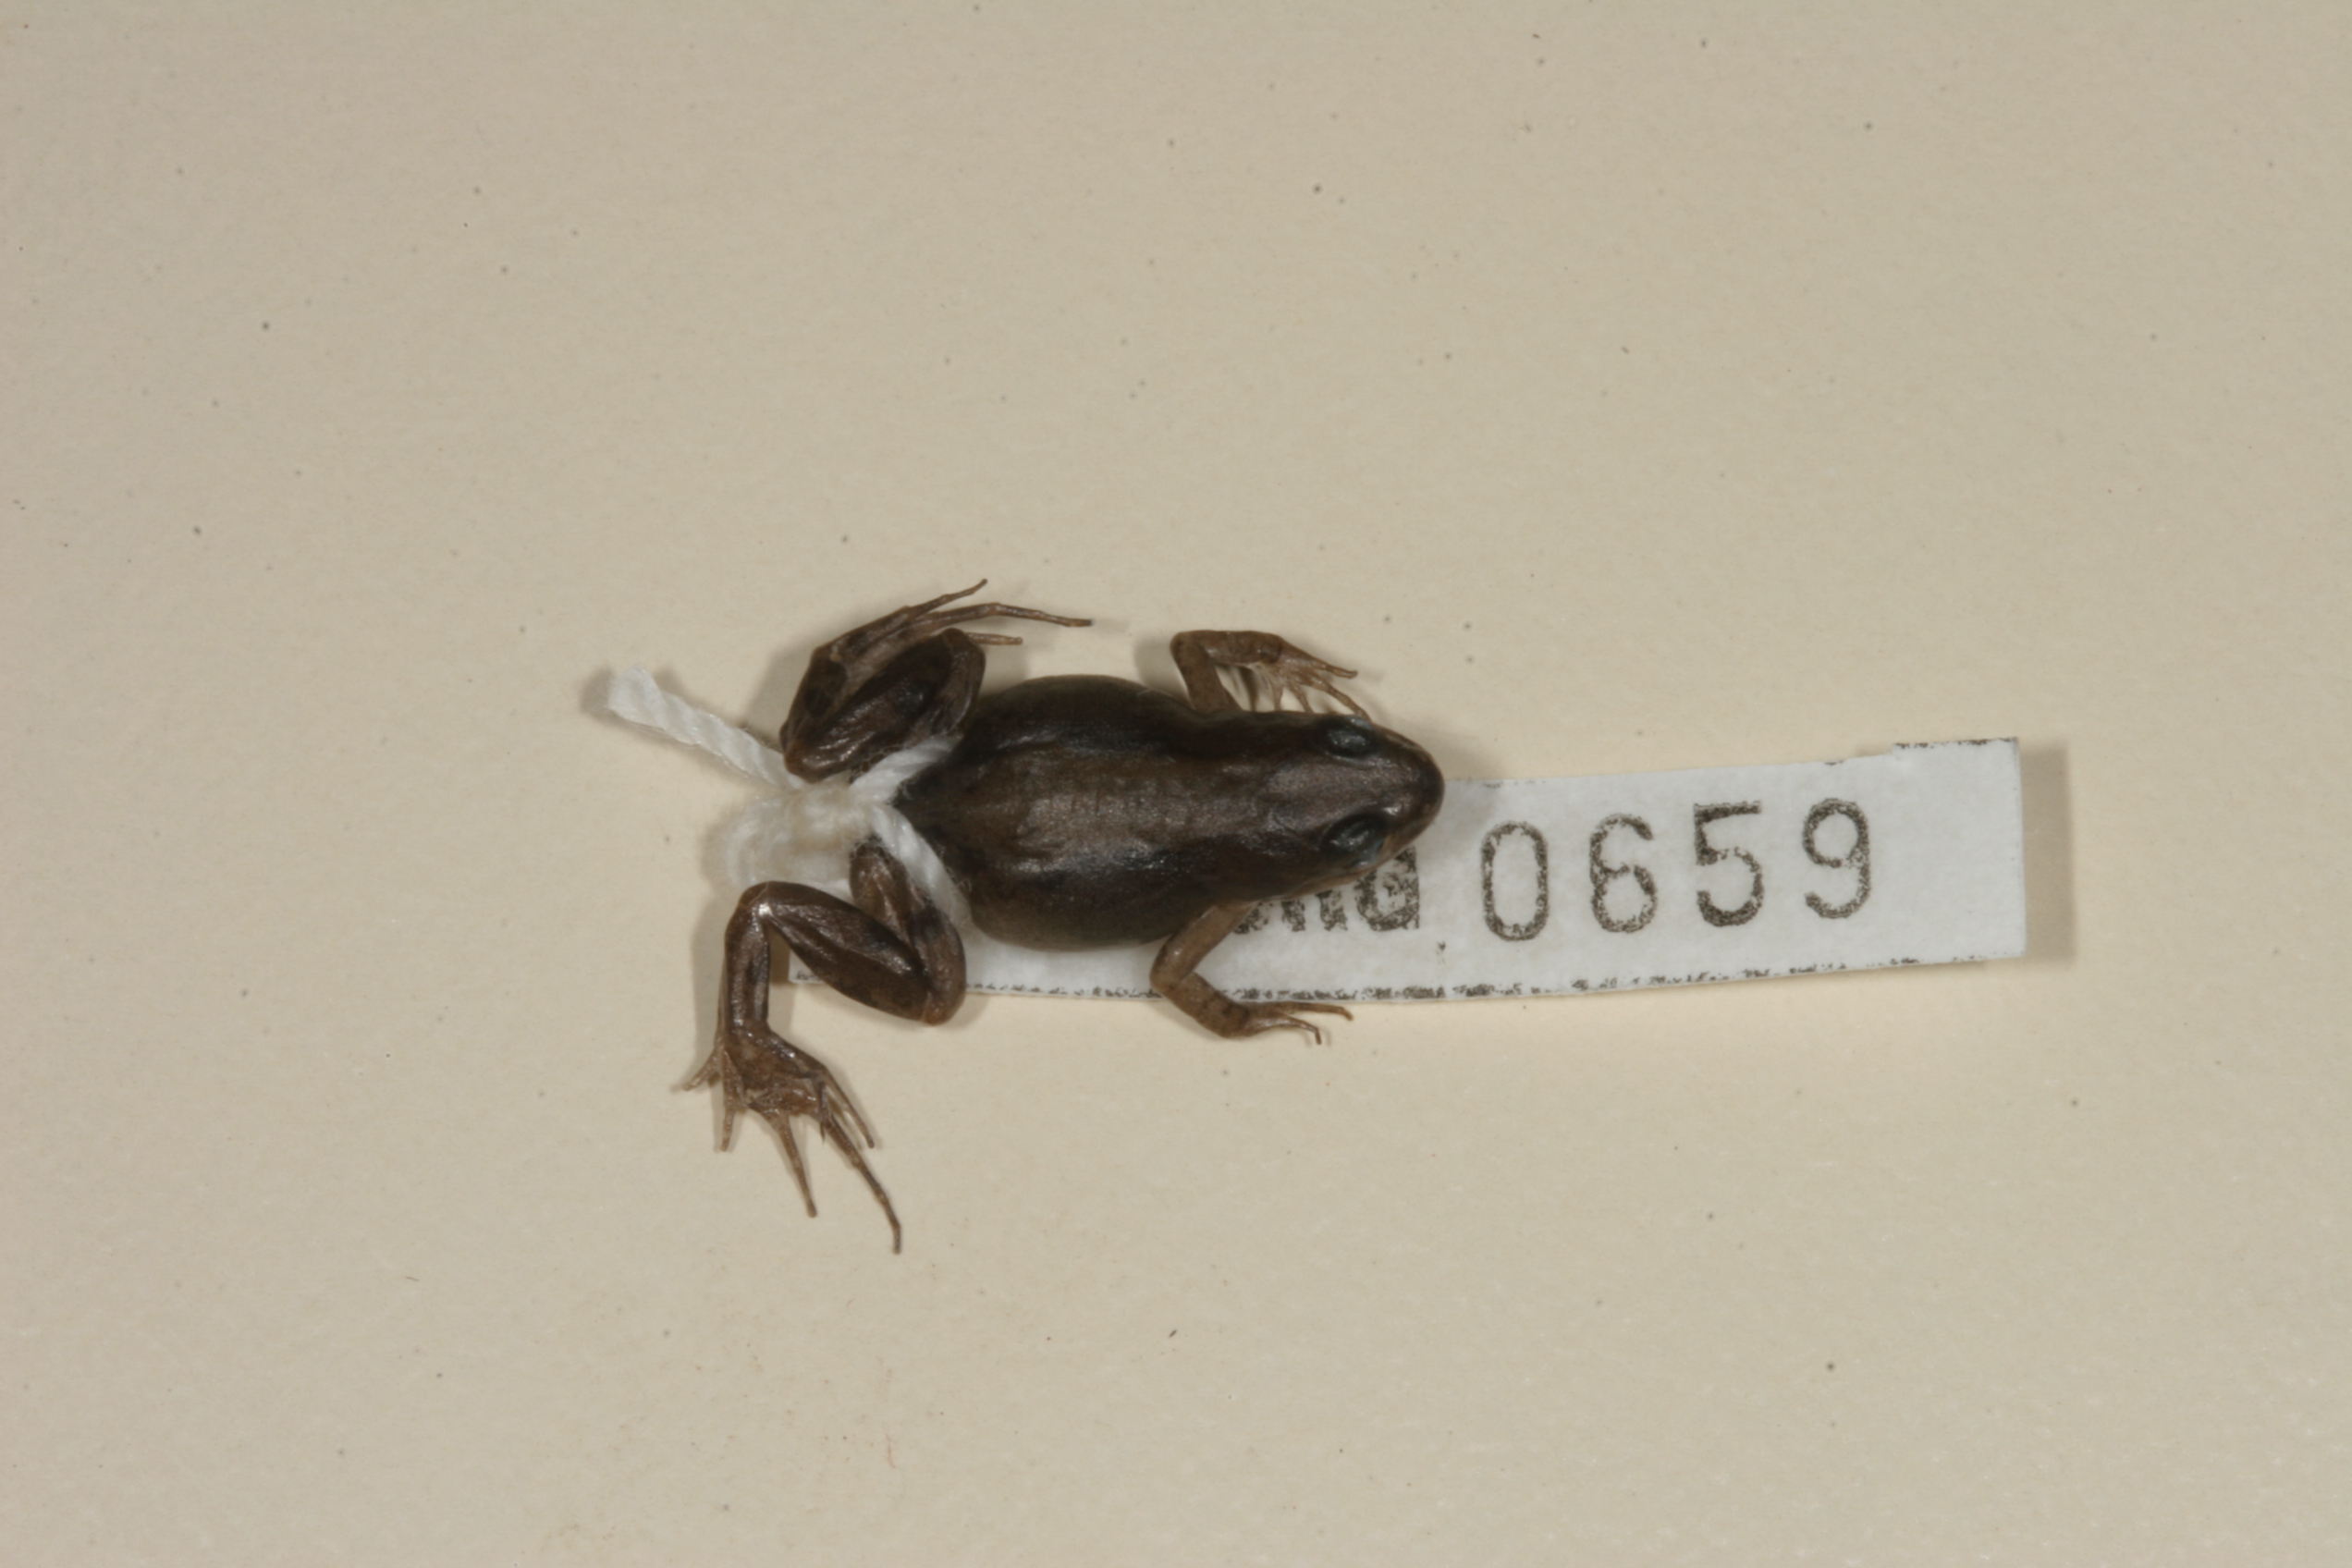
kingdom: Animalia
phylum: Chordata
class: Amphibia
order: Anura
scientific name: Anura
